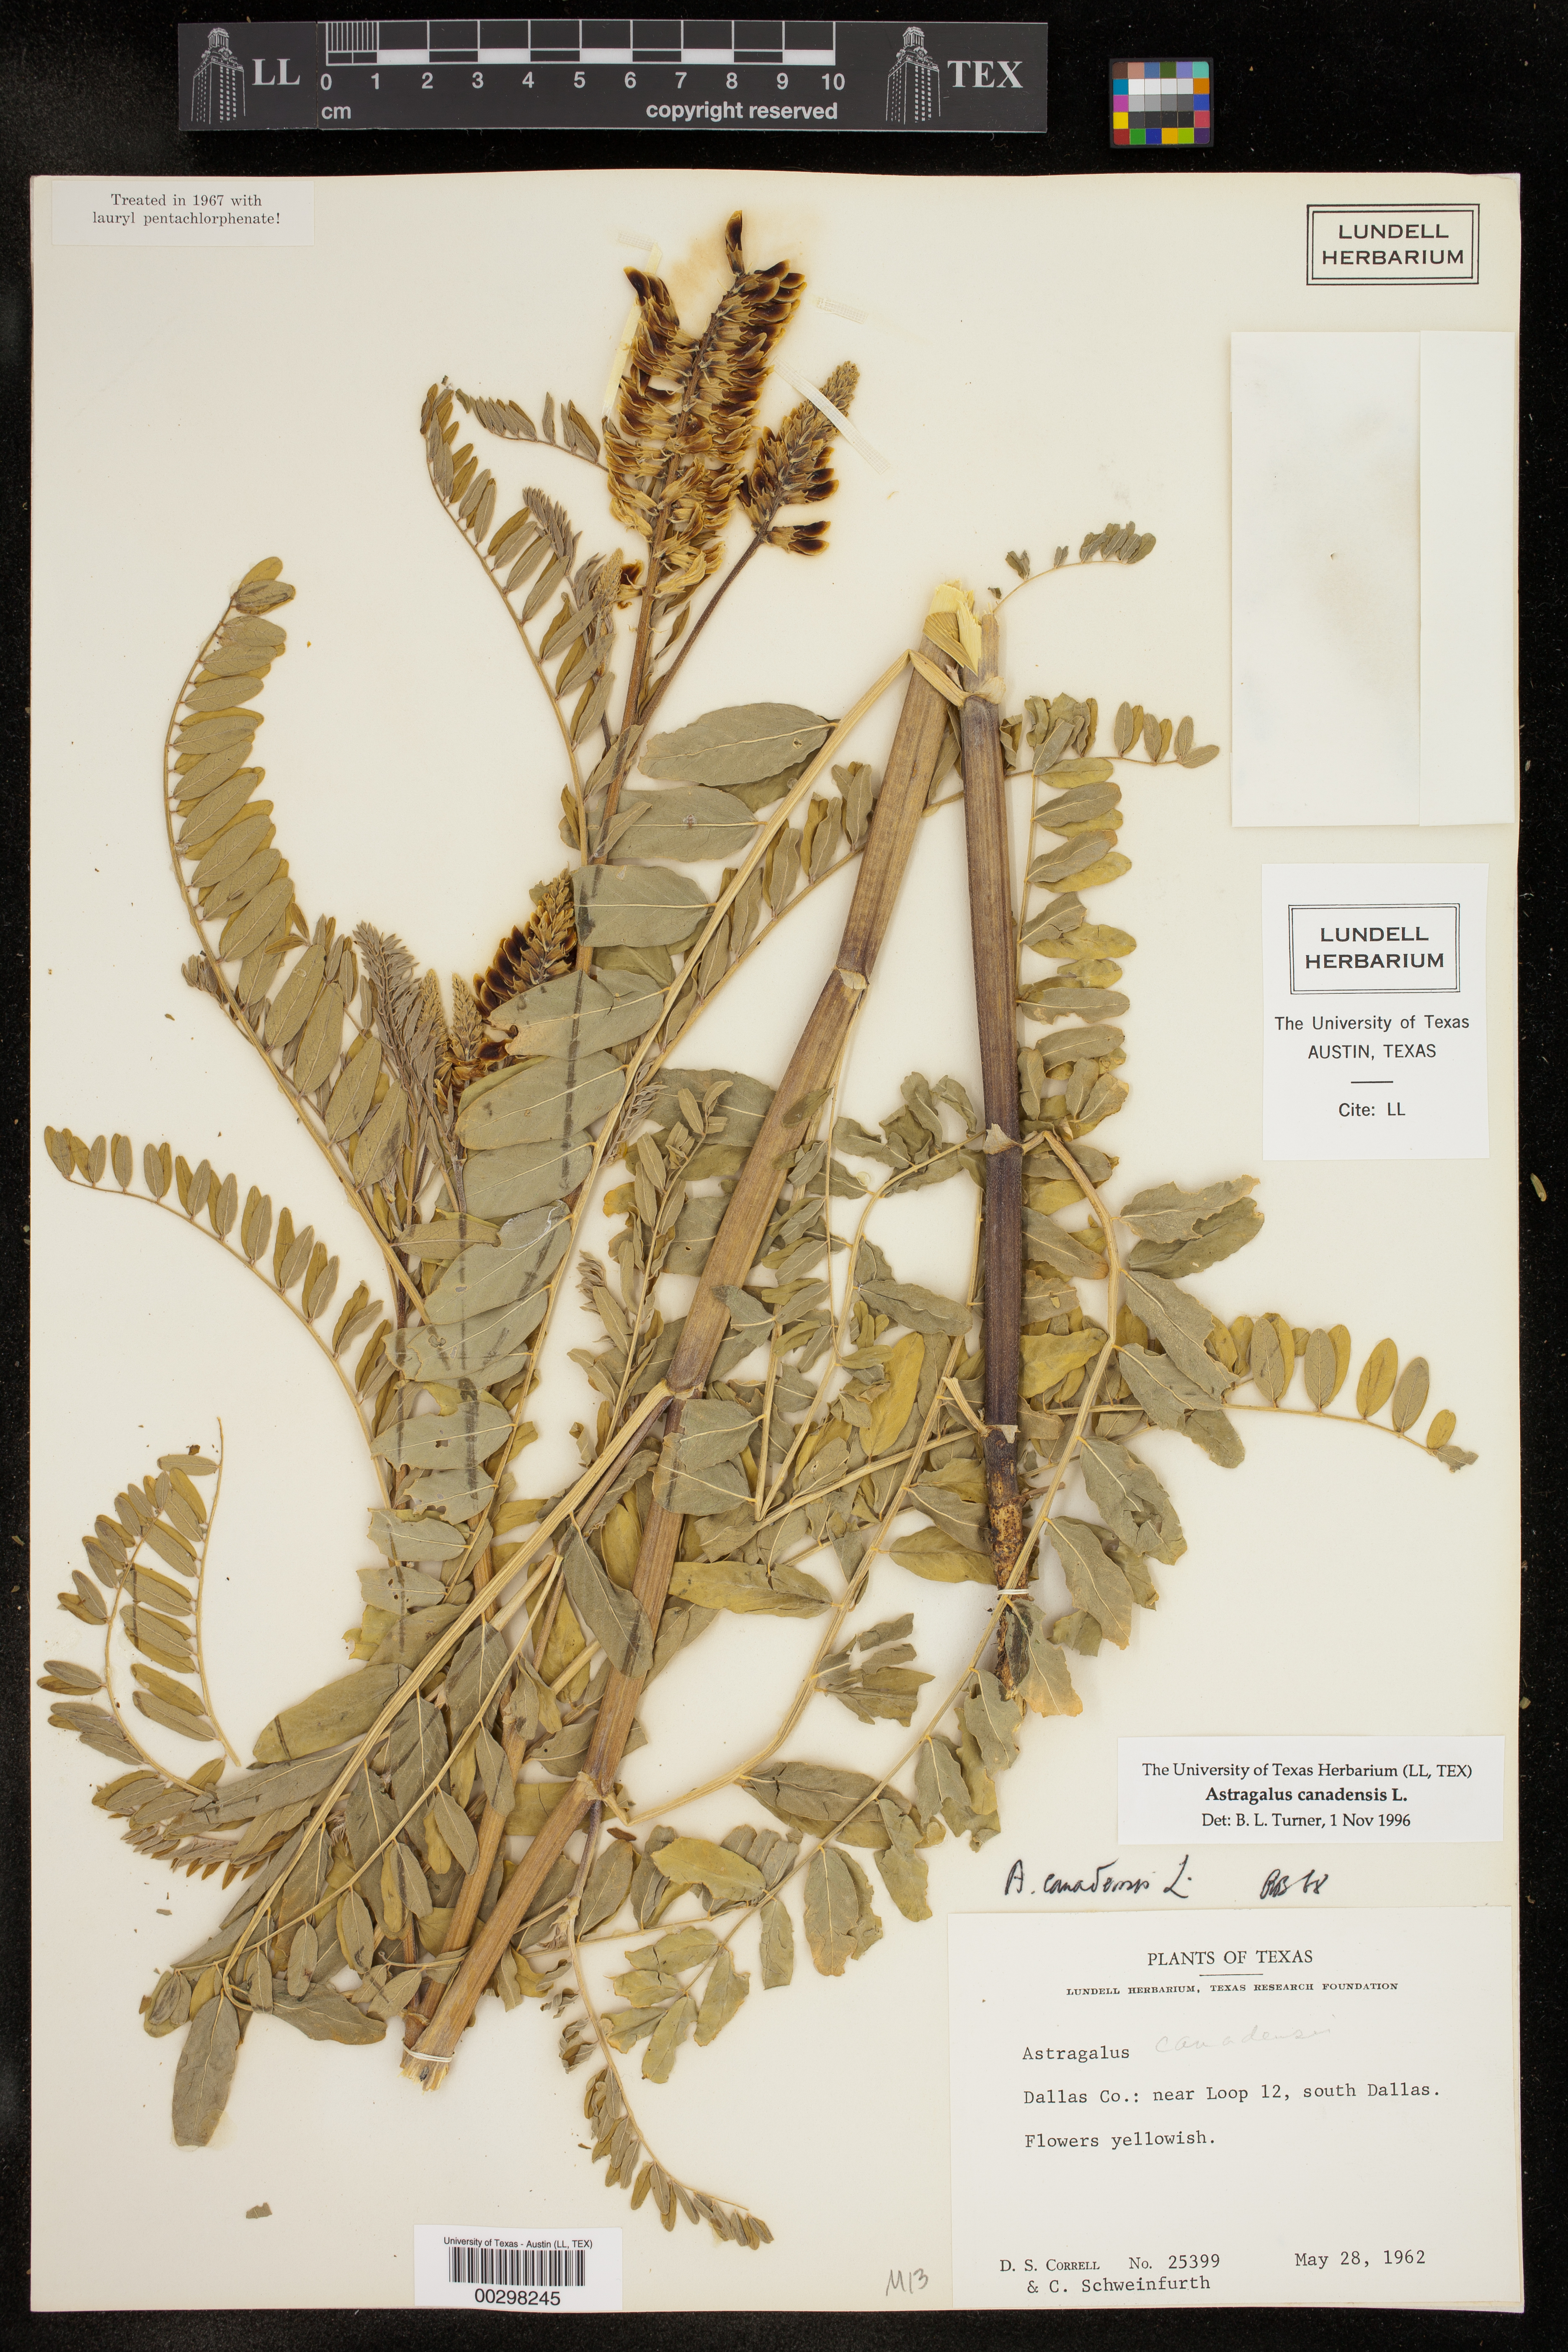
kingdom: Plantae
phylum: Tracheophyta
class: Magnoliopsida
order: Fabales
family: Fabaceae
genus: Astragalus
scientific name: Astragalus canadensis
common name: Canada milk-vetch
